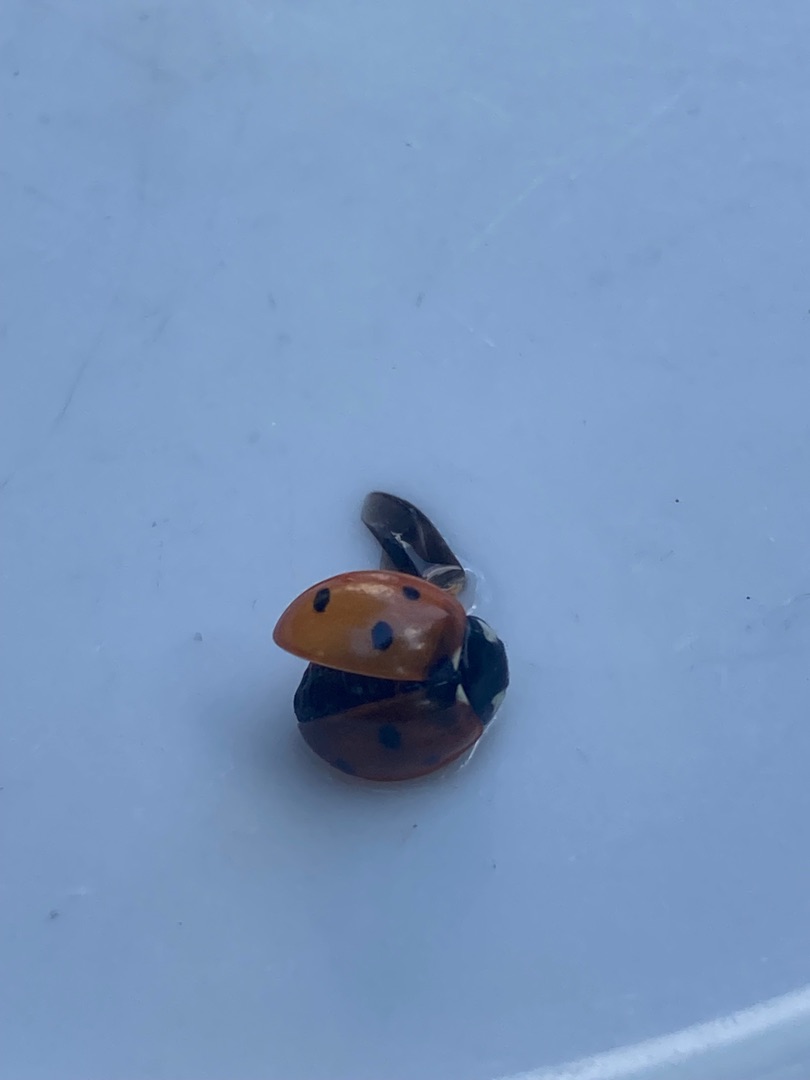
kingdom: Animalia
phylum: Arthropoda
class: Insecta
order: Coleoptera
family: Coccinellidae
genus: Coccinella
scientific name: Coccinella septempunctata
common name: Syvplettet mariehøne
